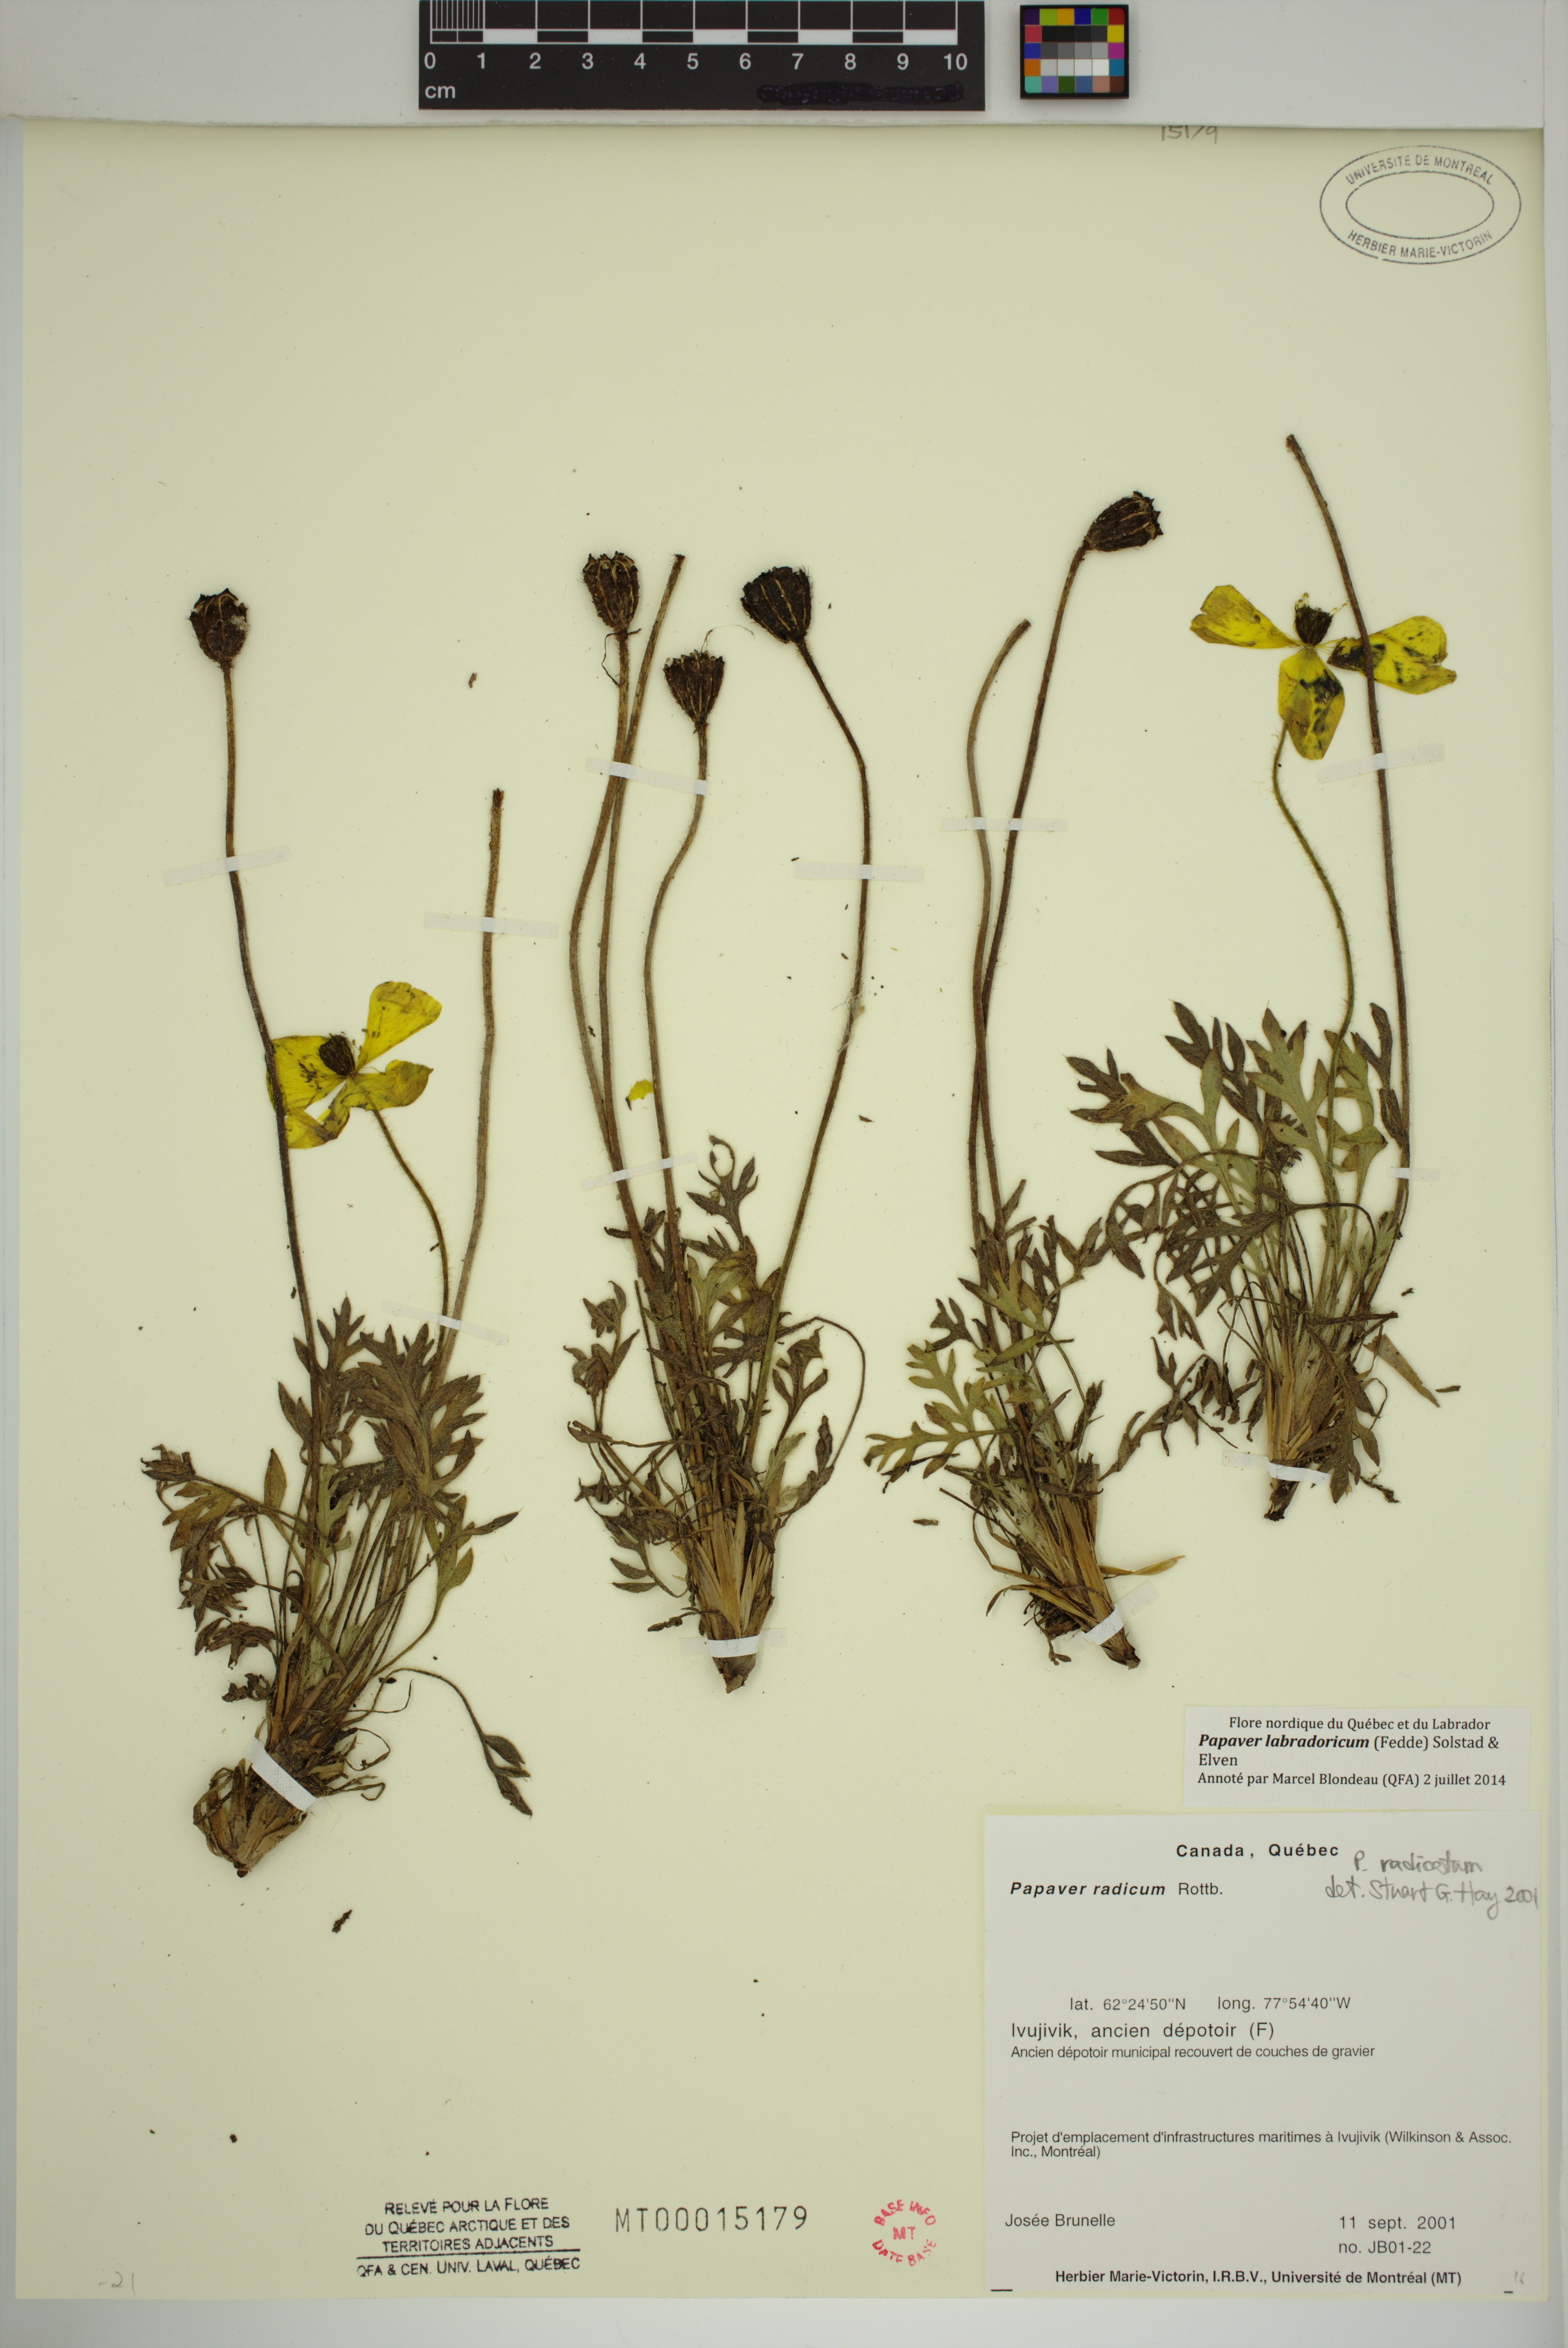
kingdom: Plantae
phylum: Tracheophyta
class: Magnoliopsida
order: Ranunculales
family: Papaveraceae
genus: Papaver
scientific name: Papaver radicatum
